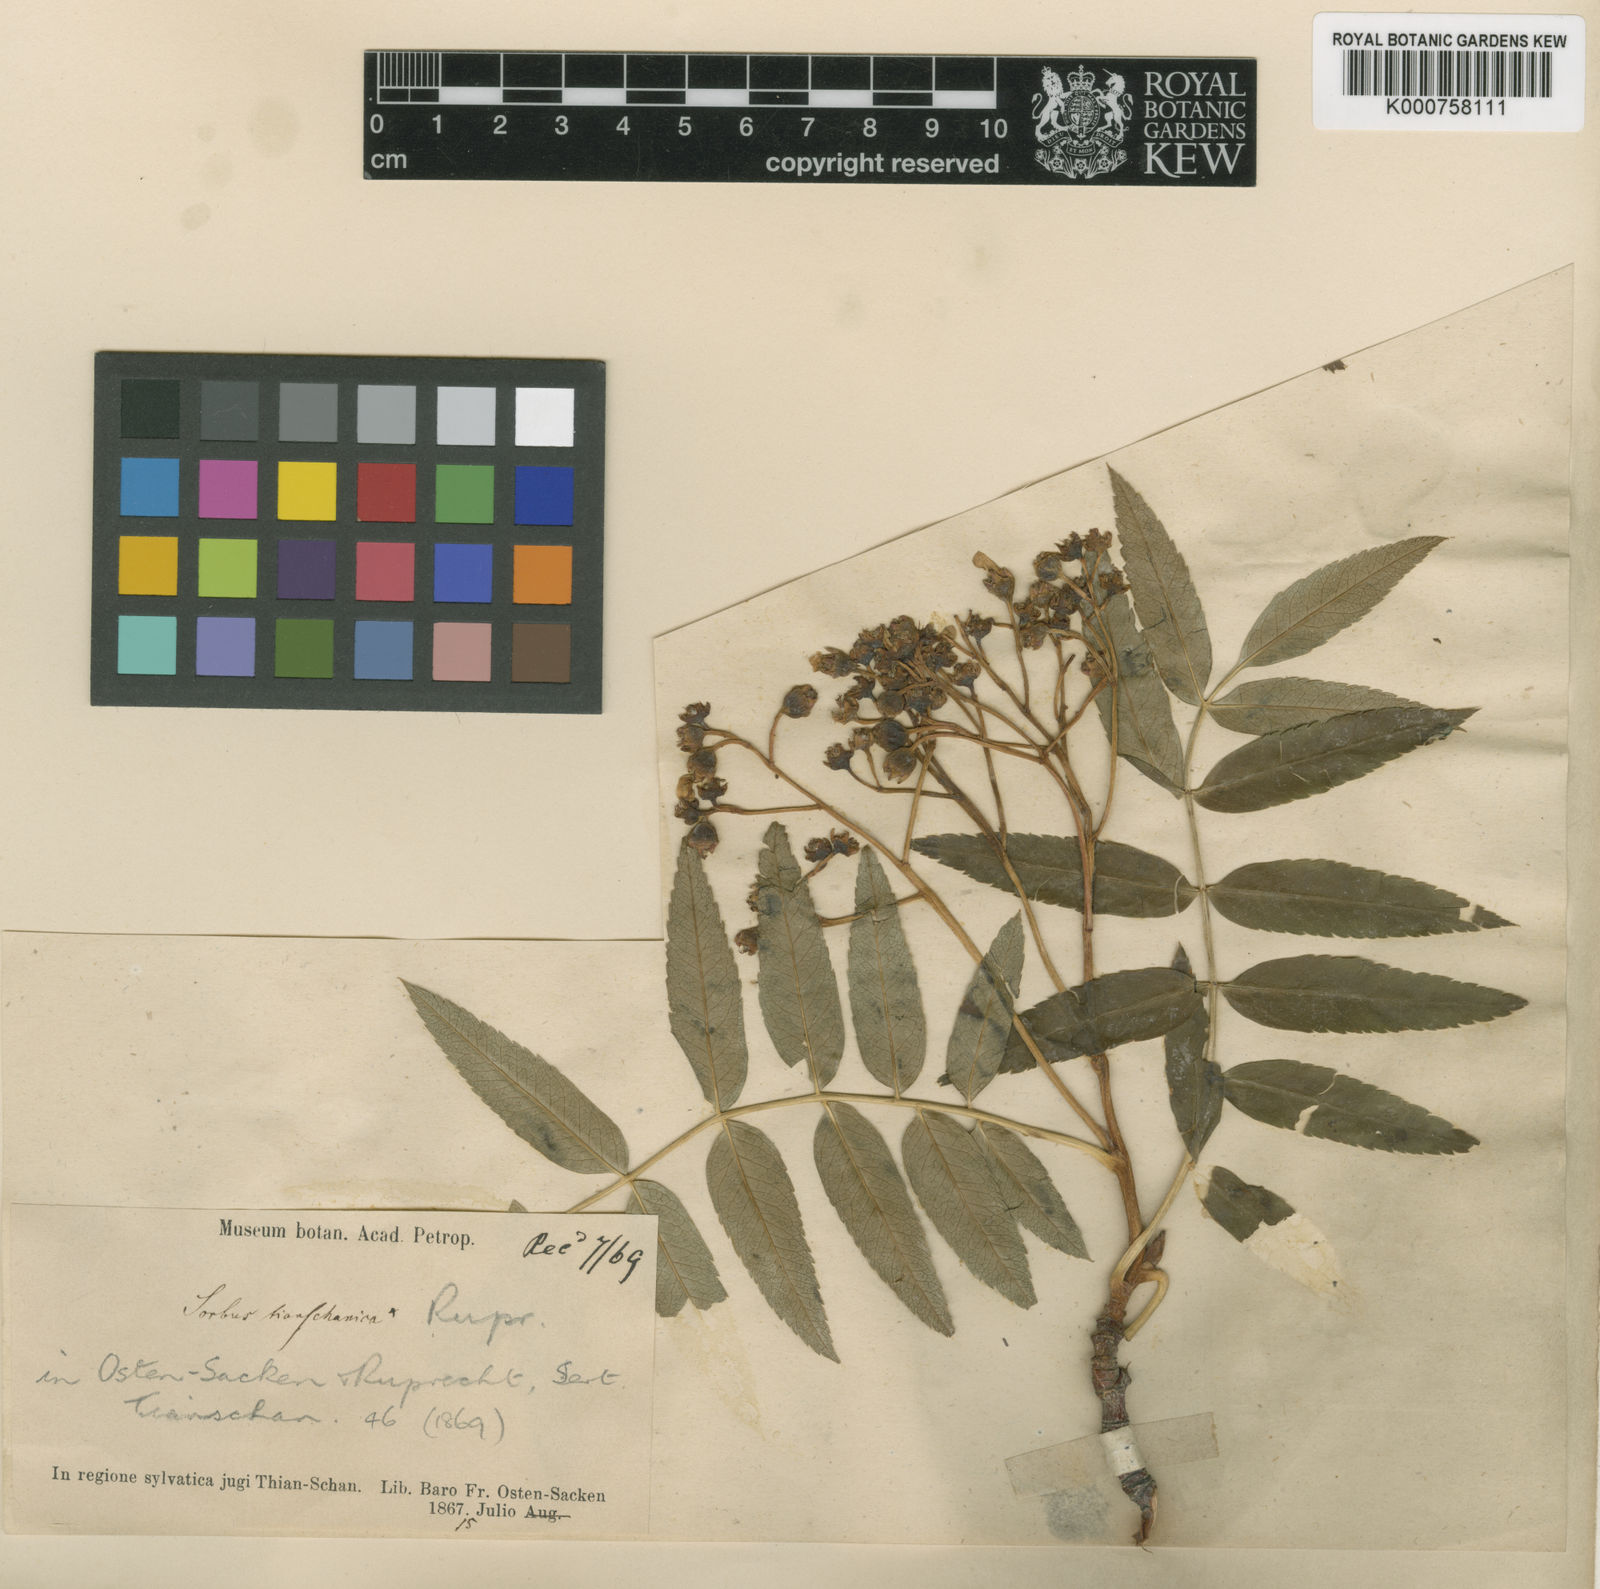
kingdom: Plantae
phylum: Tracheophyta
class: Magnoliopsida
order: Rosales
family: Rosaceae
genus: Sorbus
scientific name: Sorbus tianschanica
